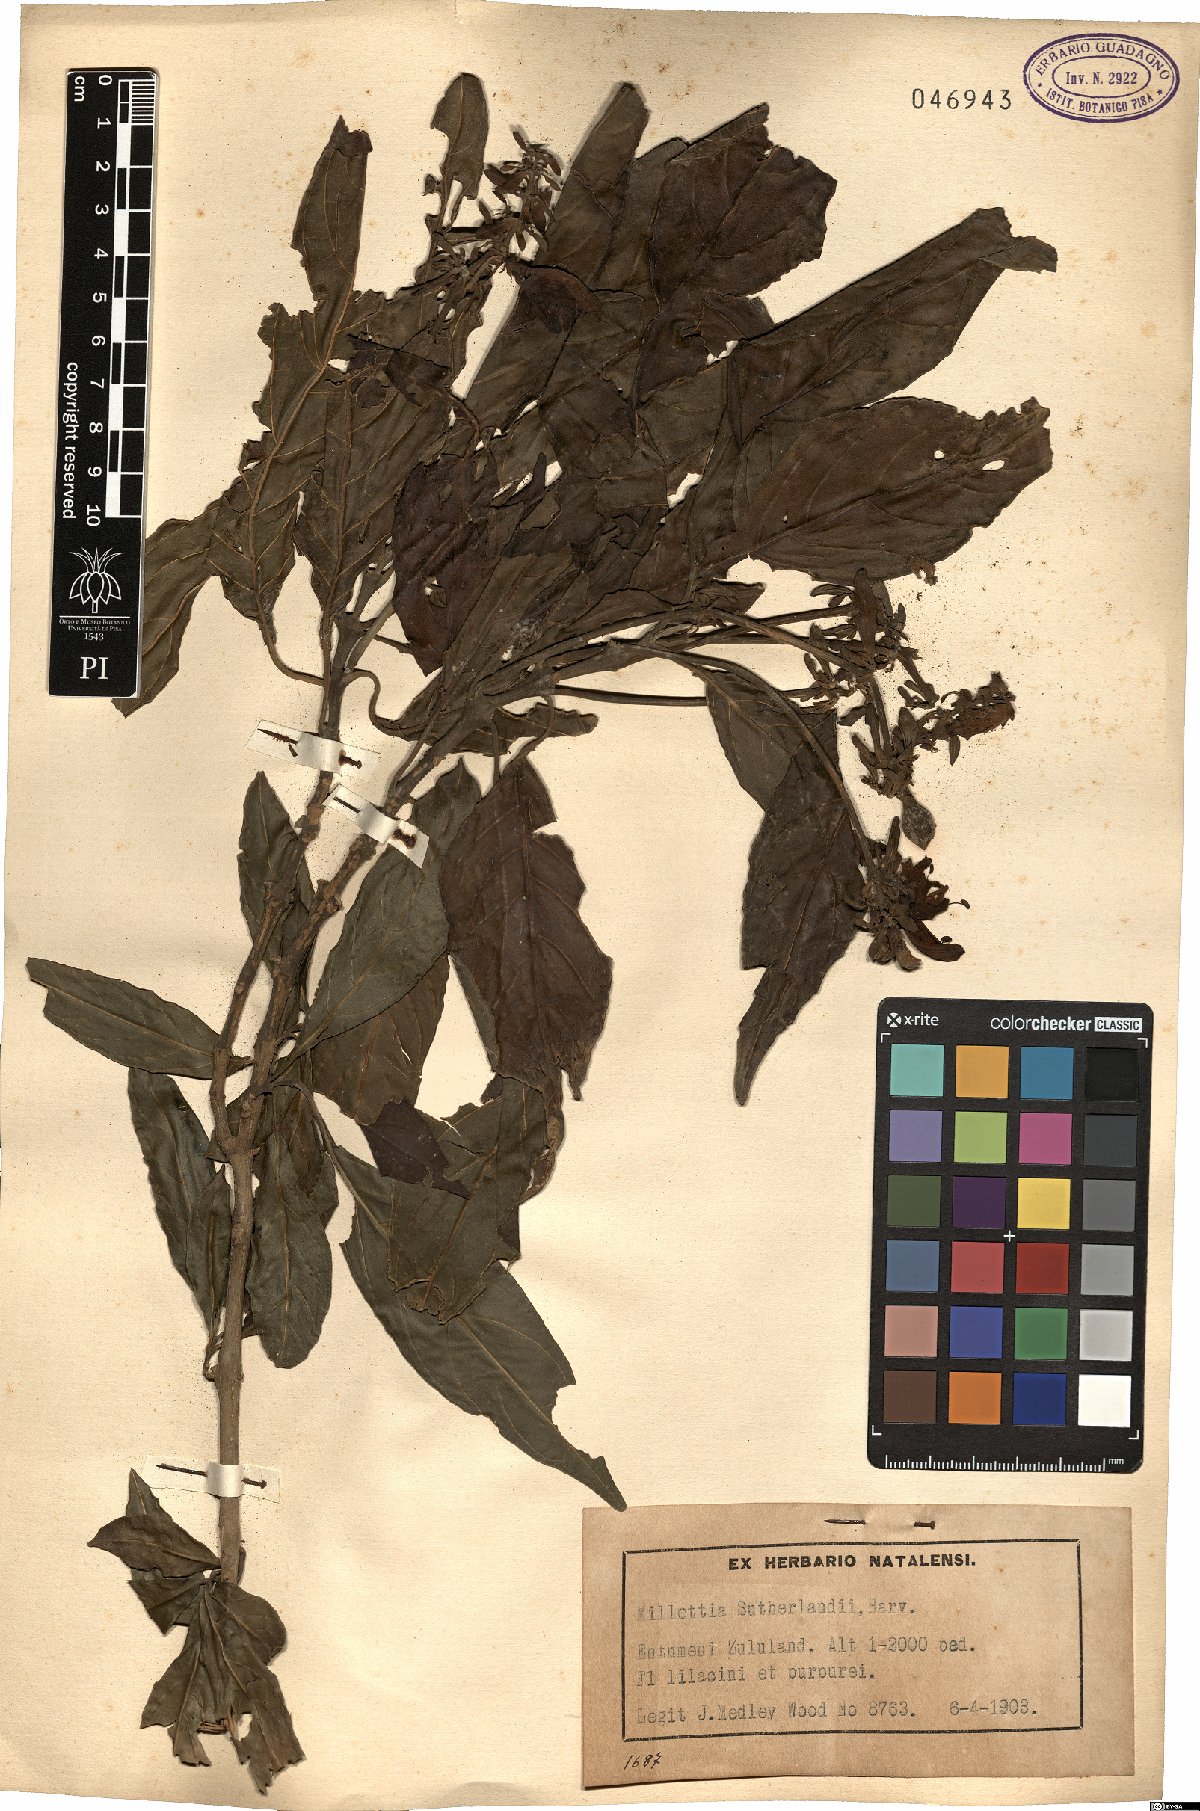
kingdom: Plantae
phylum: Tracheophyta
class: Magnoliopsida
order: Fabales
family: Fabaceae
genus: Philenoptera
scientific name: Philenoptera sutherlandii
